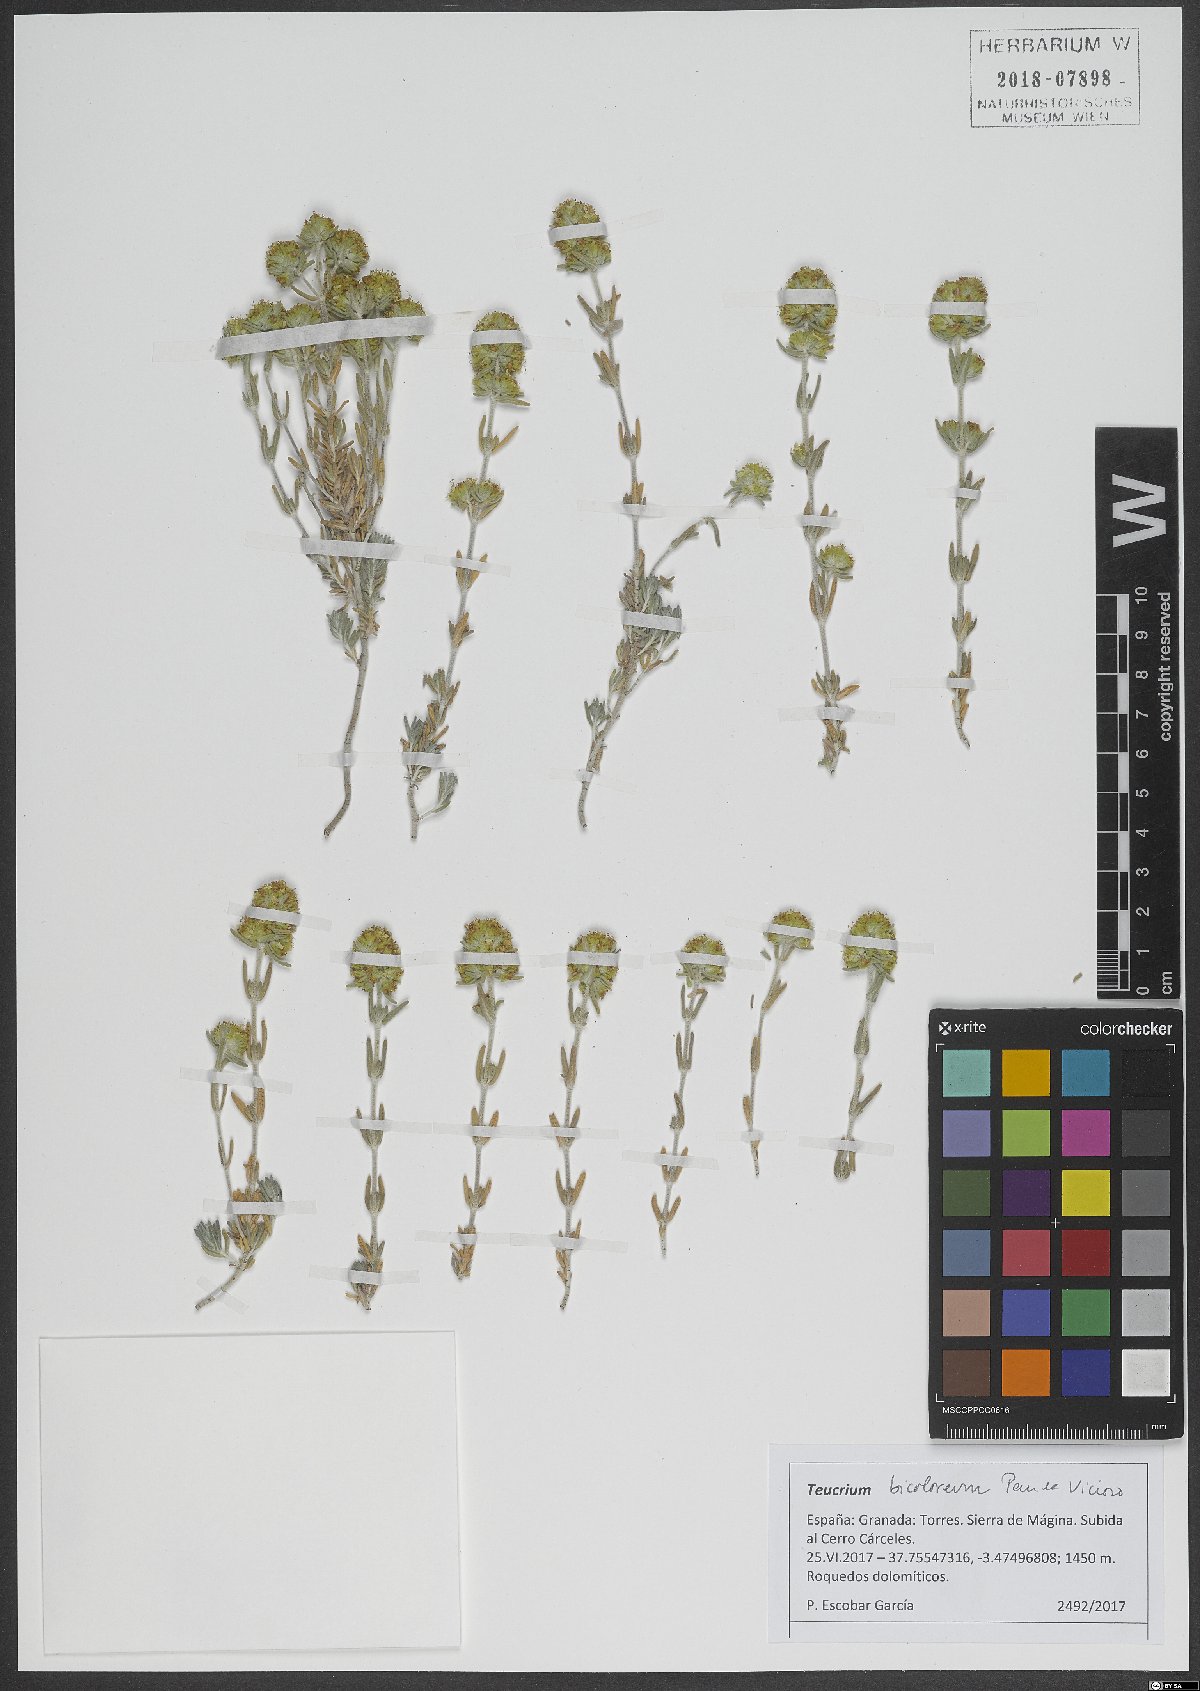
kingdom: Plantae
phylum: Tracheophyta
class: Magnoliopsida
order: Lamiales
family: Lamiaceae
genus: Teucrium
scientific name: Teucrium bicoloreum
